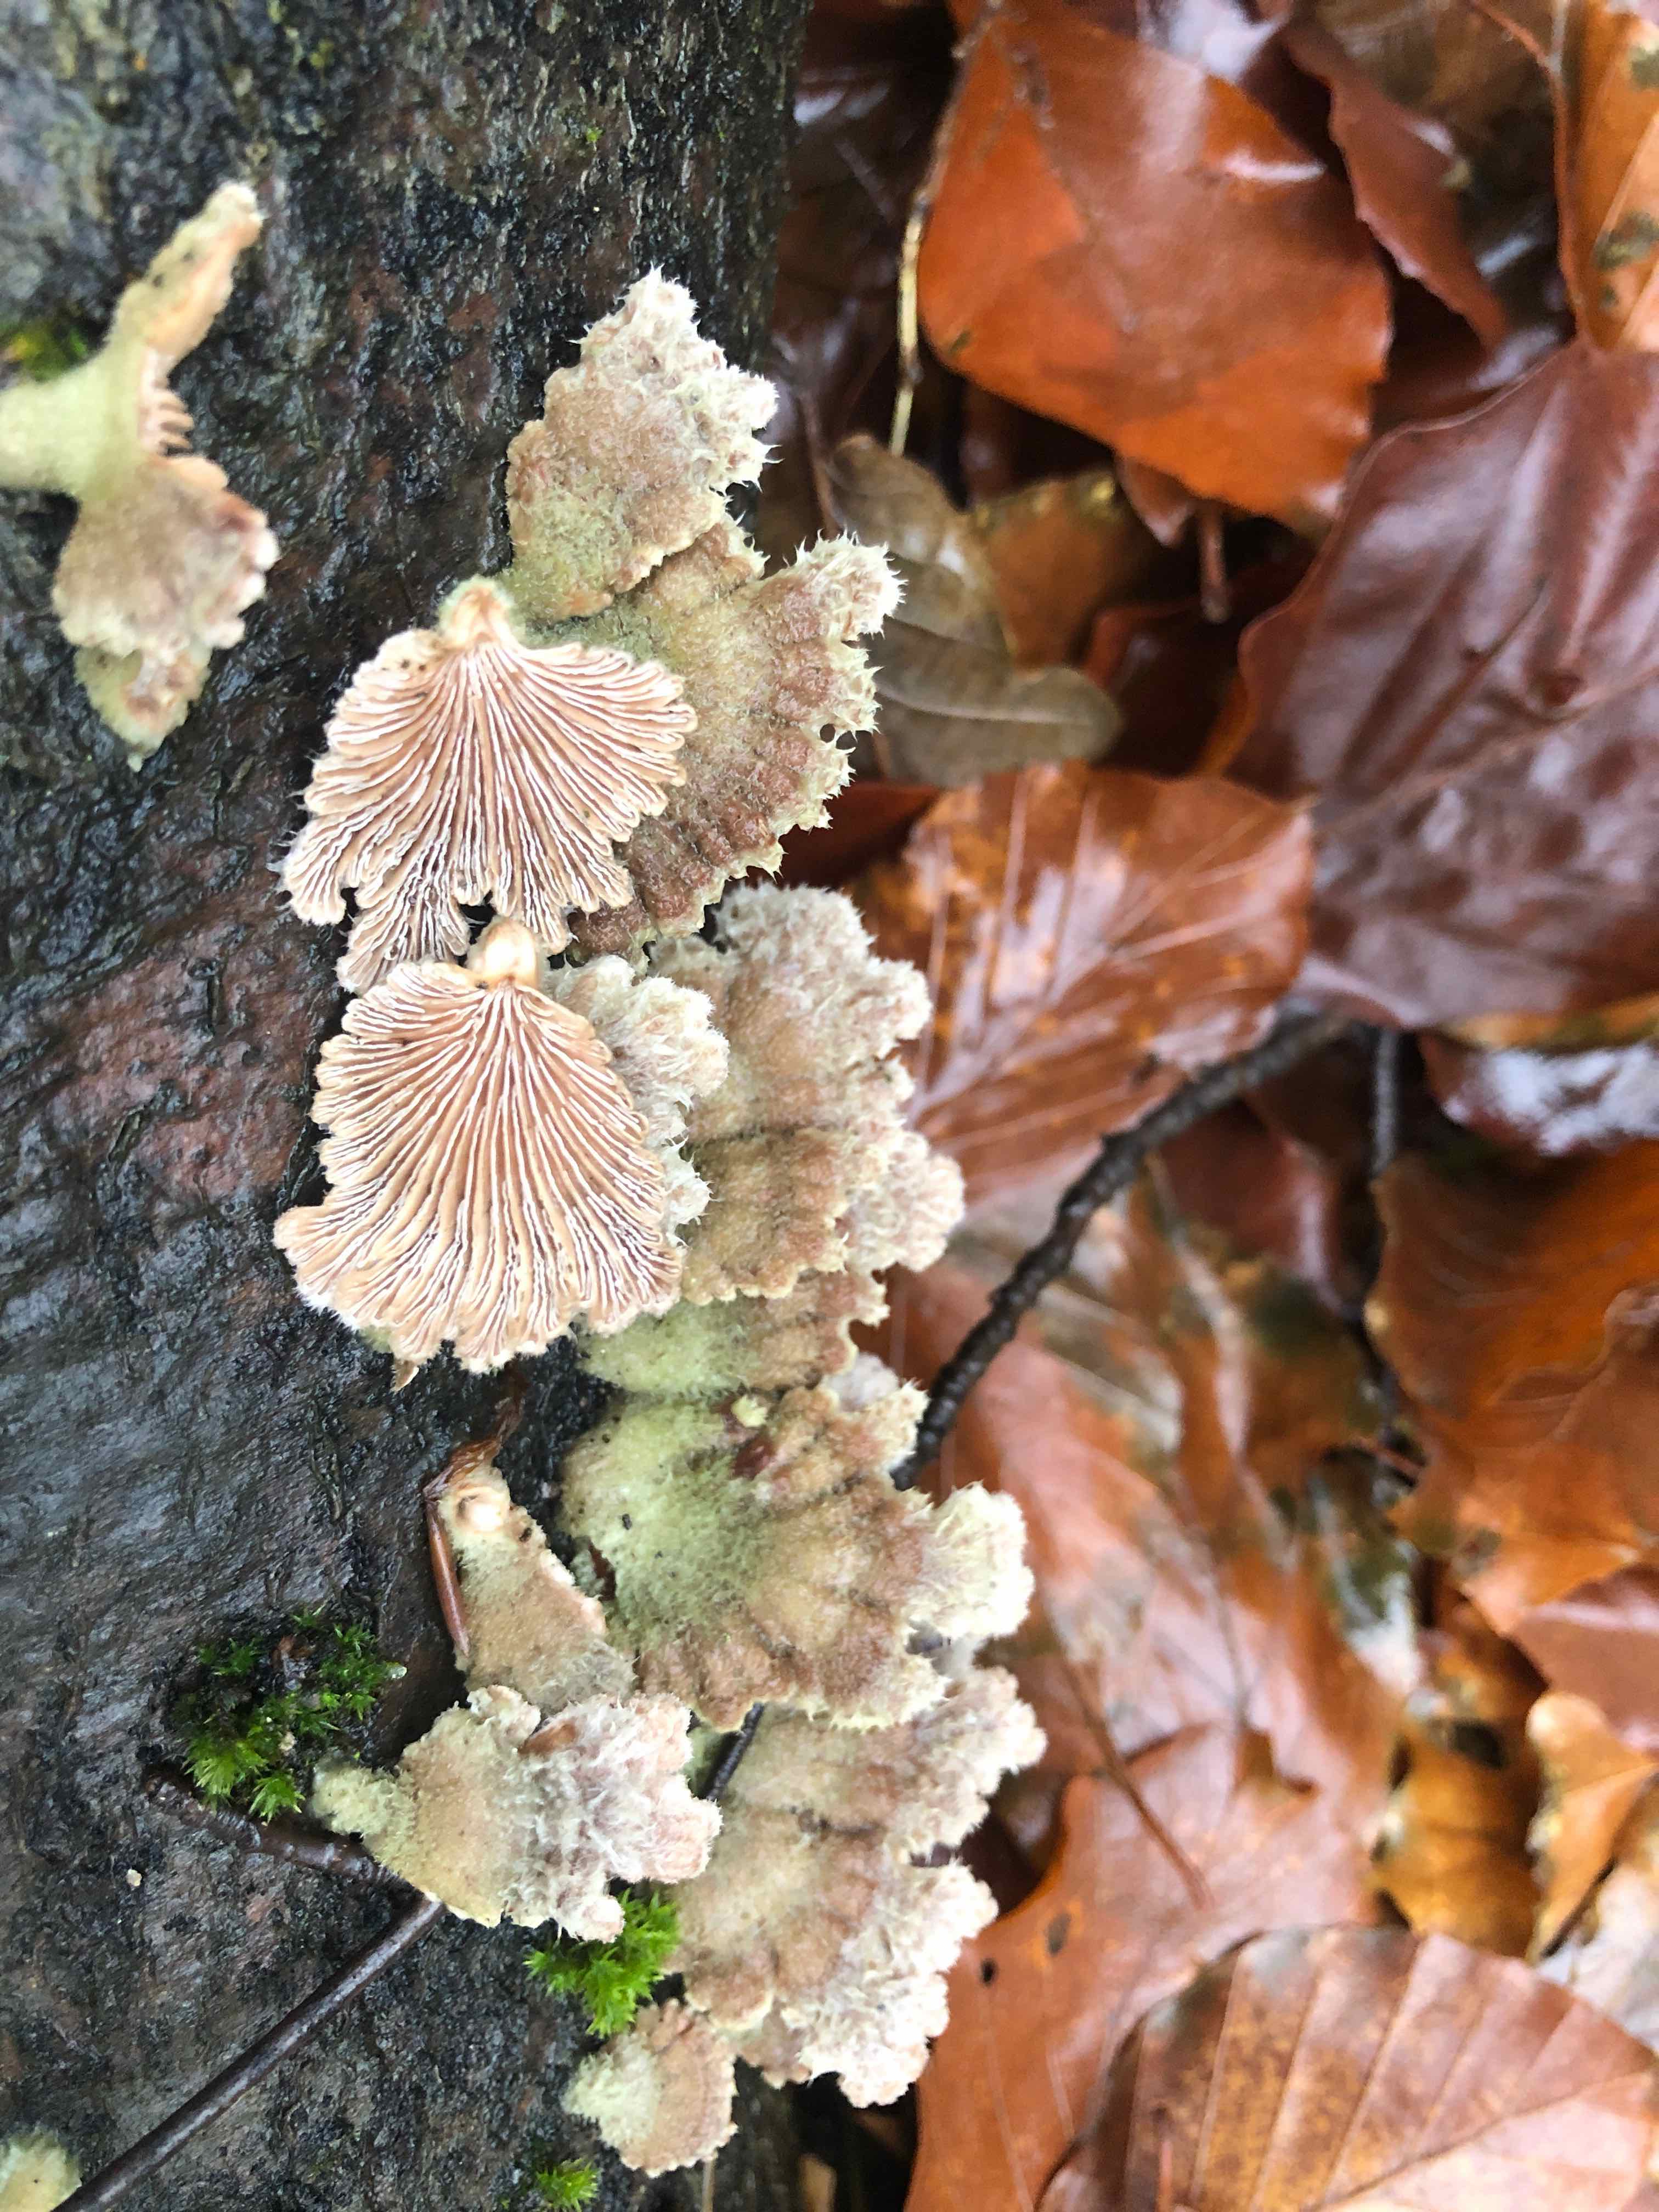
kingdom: Fungi
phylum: Basidiomycota
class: Agaricomycetes
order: Agaricales
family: Schizophyllaceae
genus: Schizophyllum
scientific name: Schizophyllum commune
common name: kløvblad
